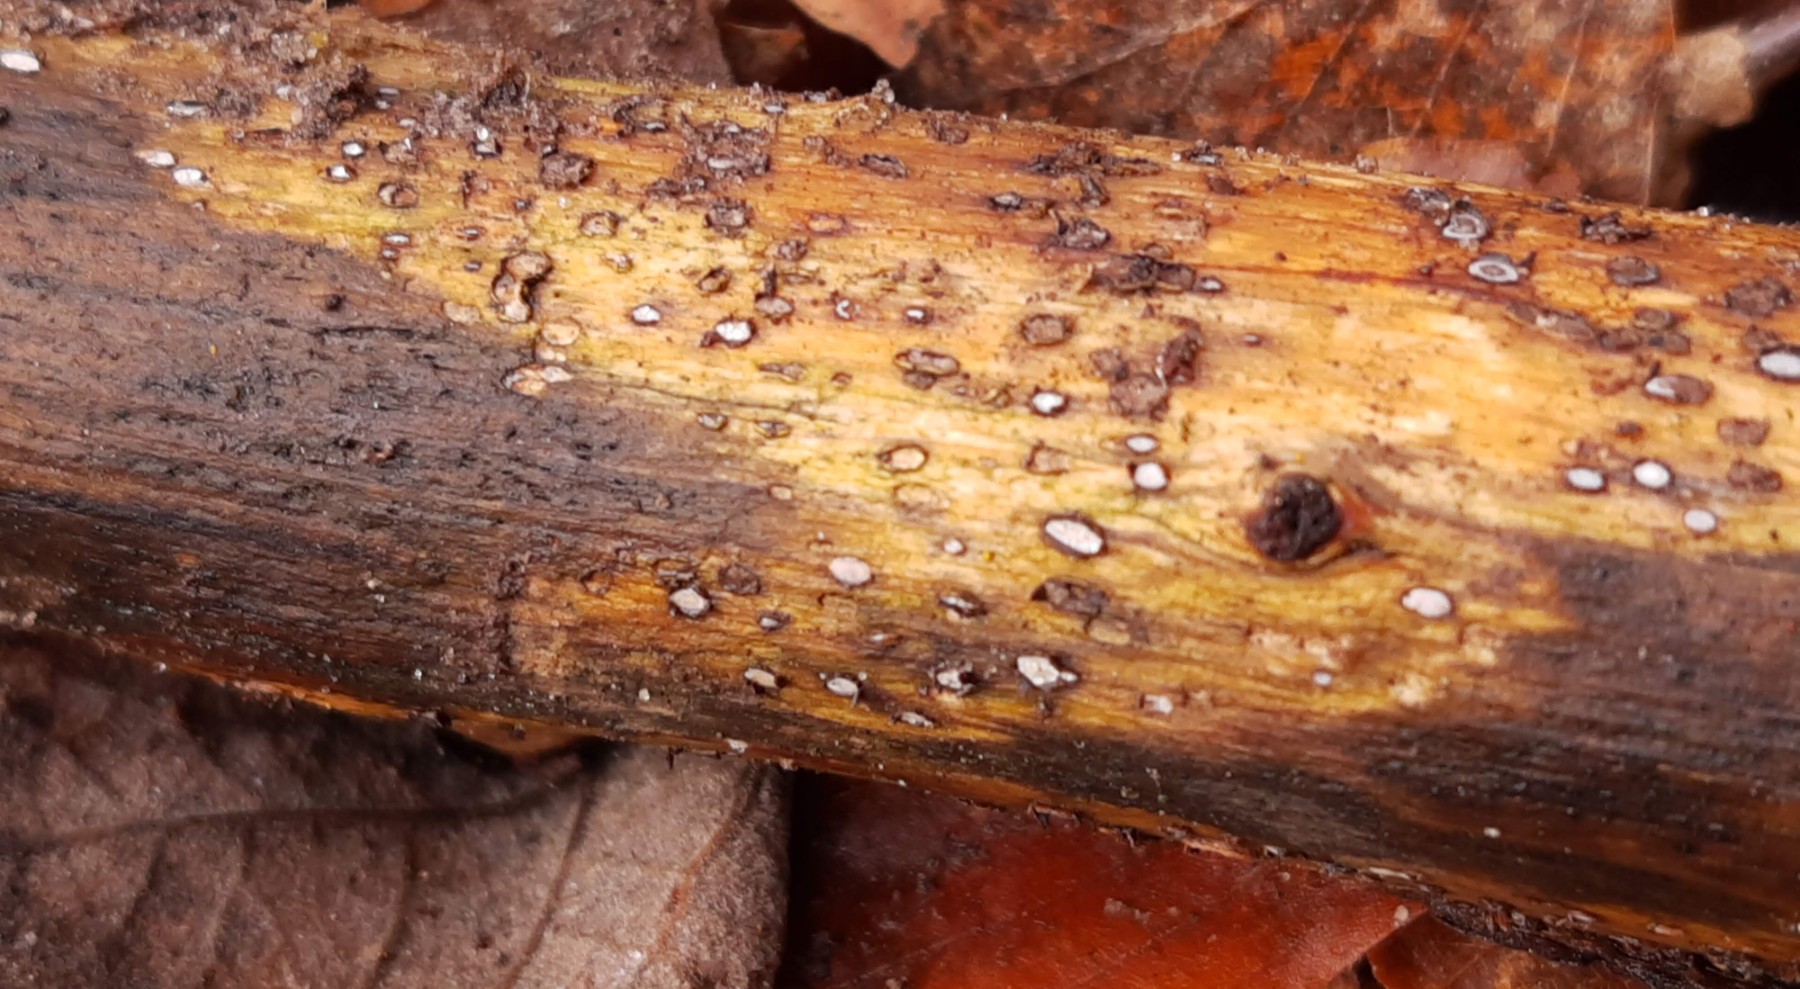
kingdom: Fungi
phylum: Ascomycota
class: Leotiomycetes
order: Chaetomellales
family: Marthamycetaceae
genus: Propolis
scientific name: Propolis farinosa
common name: almindelig vedsprængerskive
